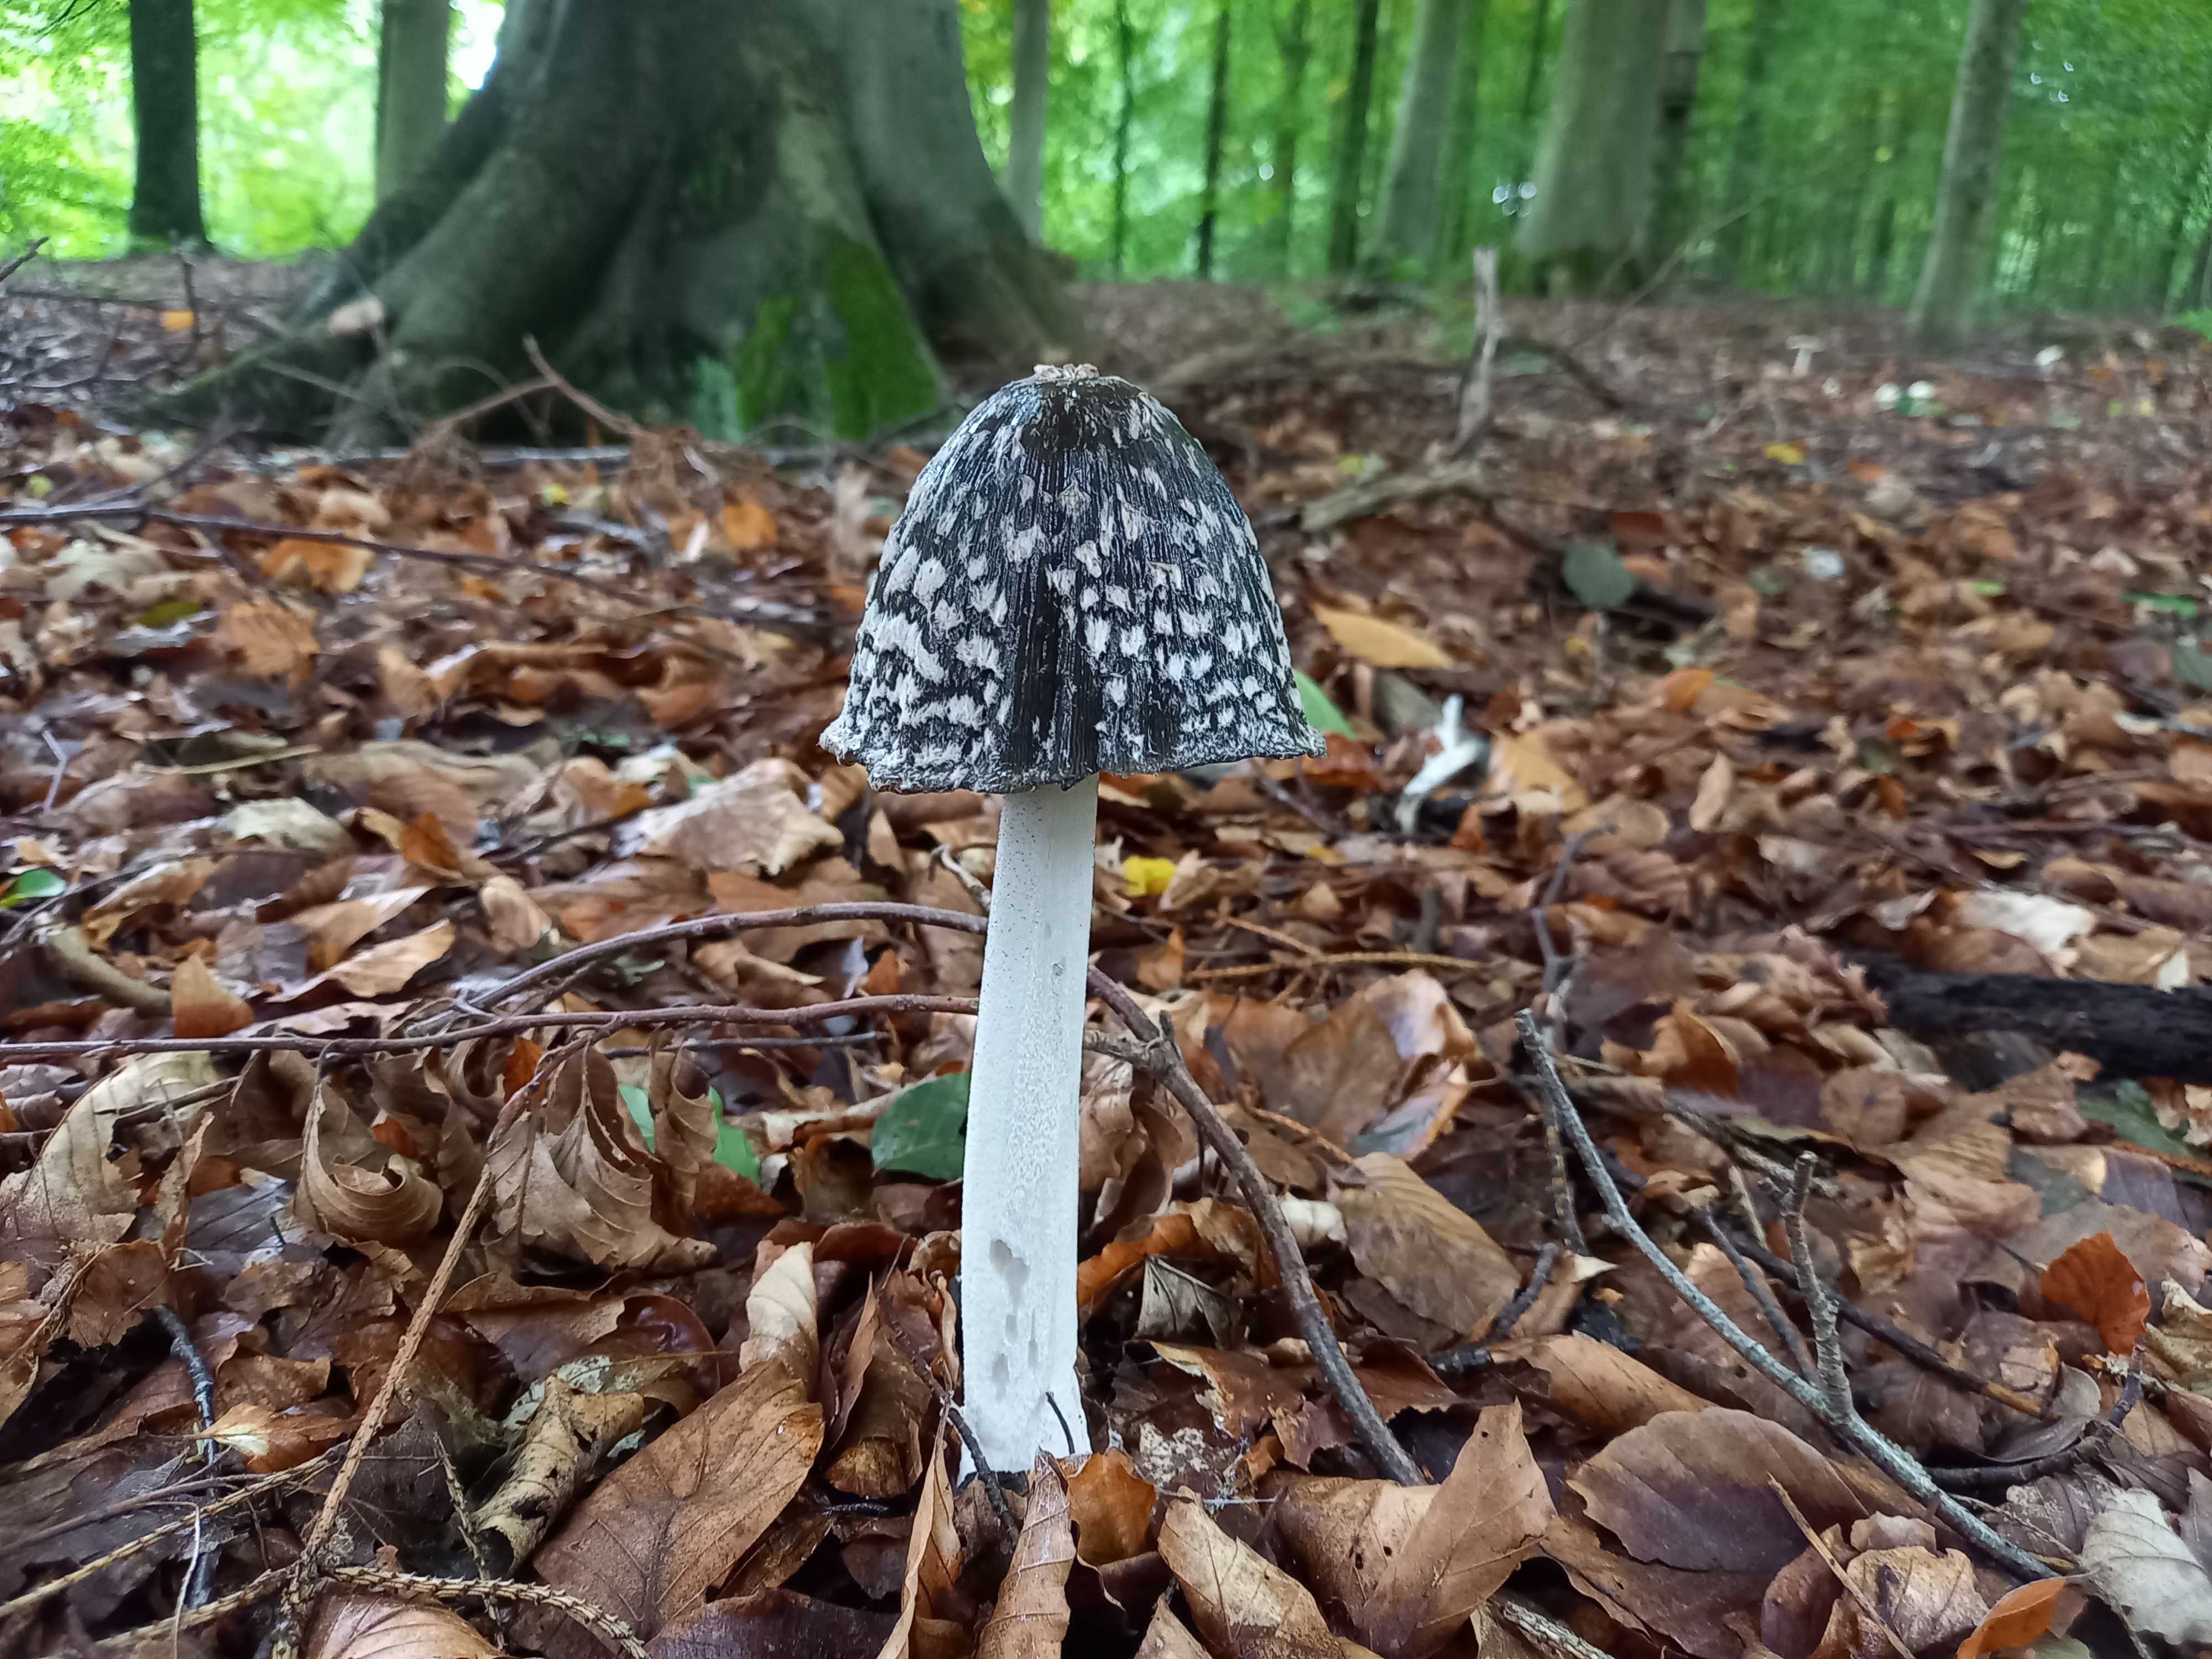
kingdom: Fungi
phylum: Basidiomycota
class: Agaricomycetes
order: Agaricales
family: Psathyrellaceae
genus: Coprinopsis
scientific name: Coprinopsis picacea
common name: skade-blækhat
